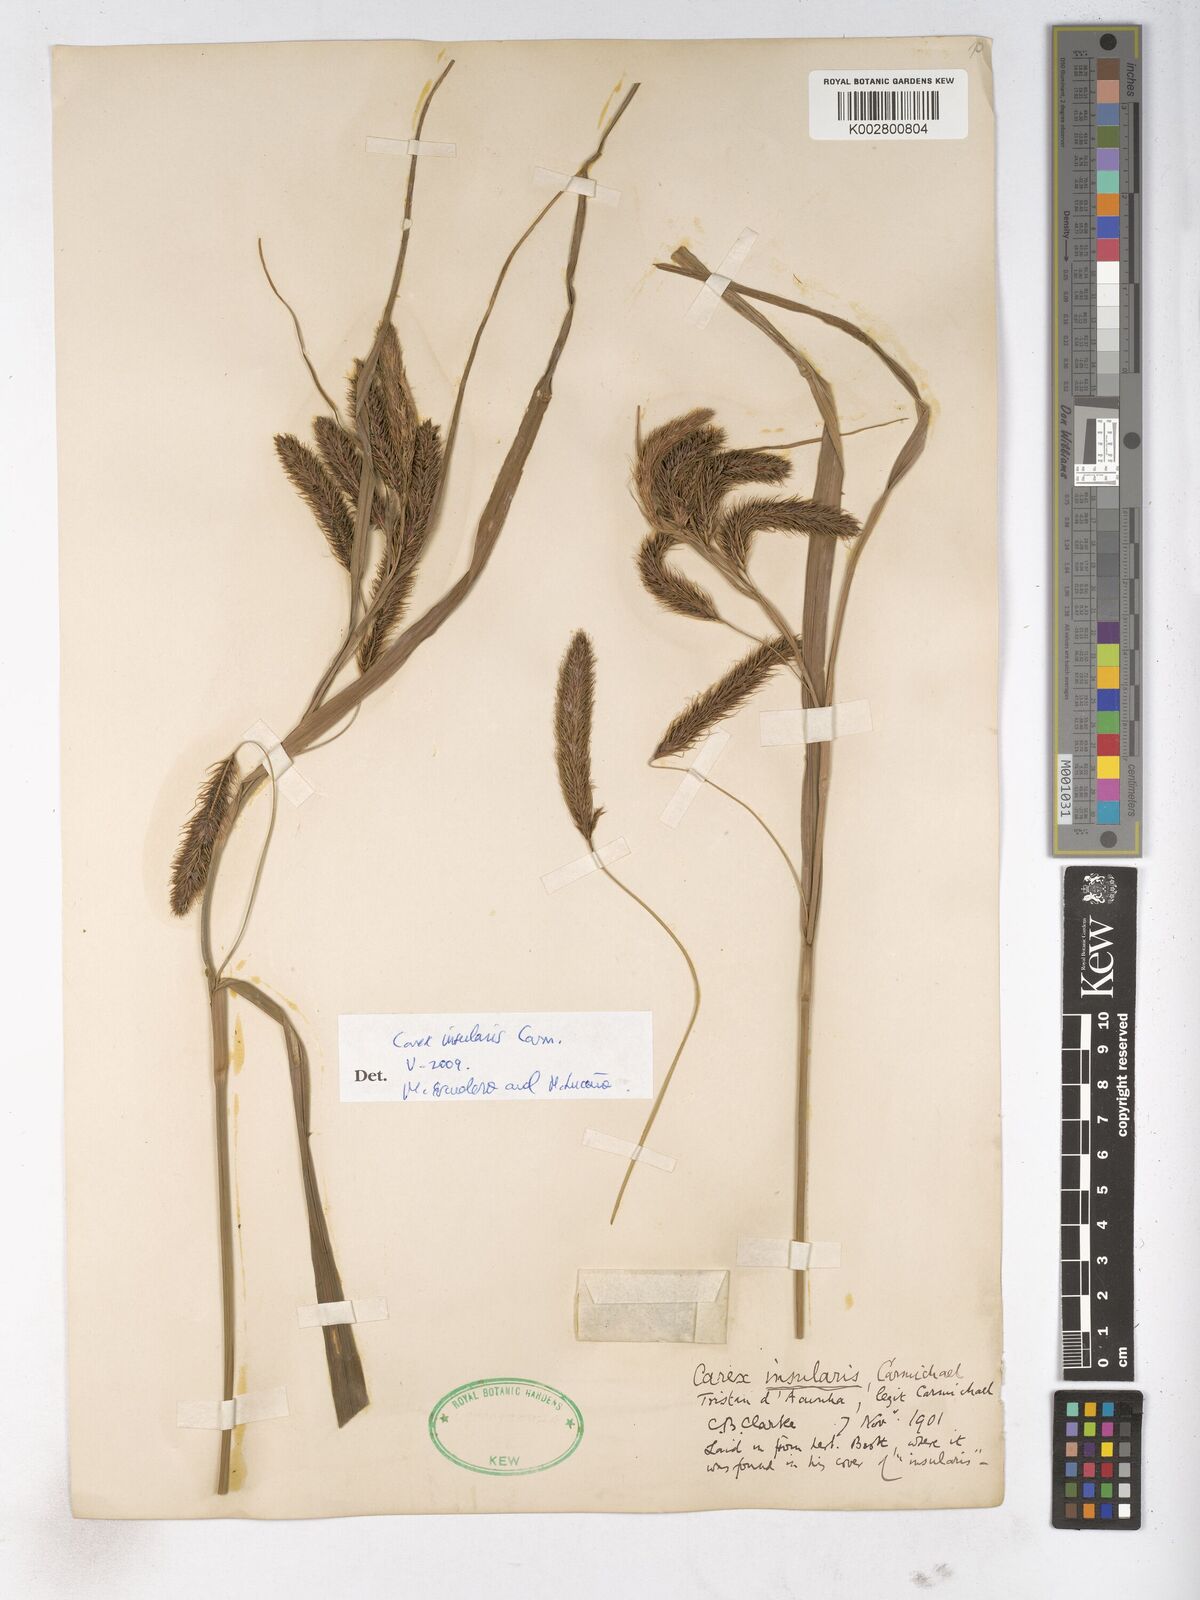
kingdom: Plantae
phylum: Tracheophyta
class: Liliopsida
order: Poales
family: Cyperaceae
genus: Carex
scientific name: Carex insularis
